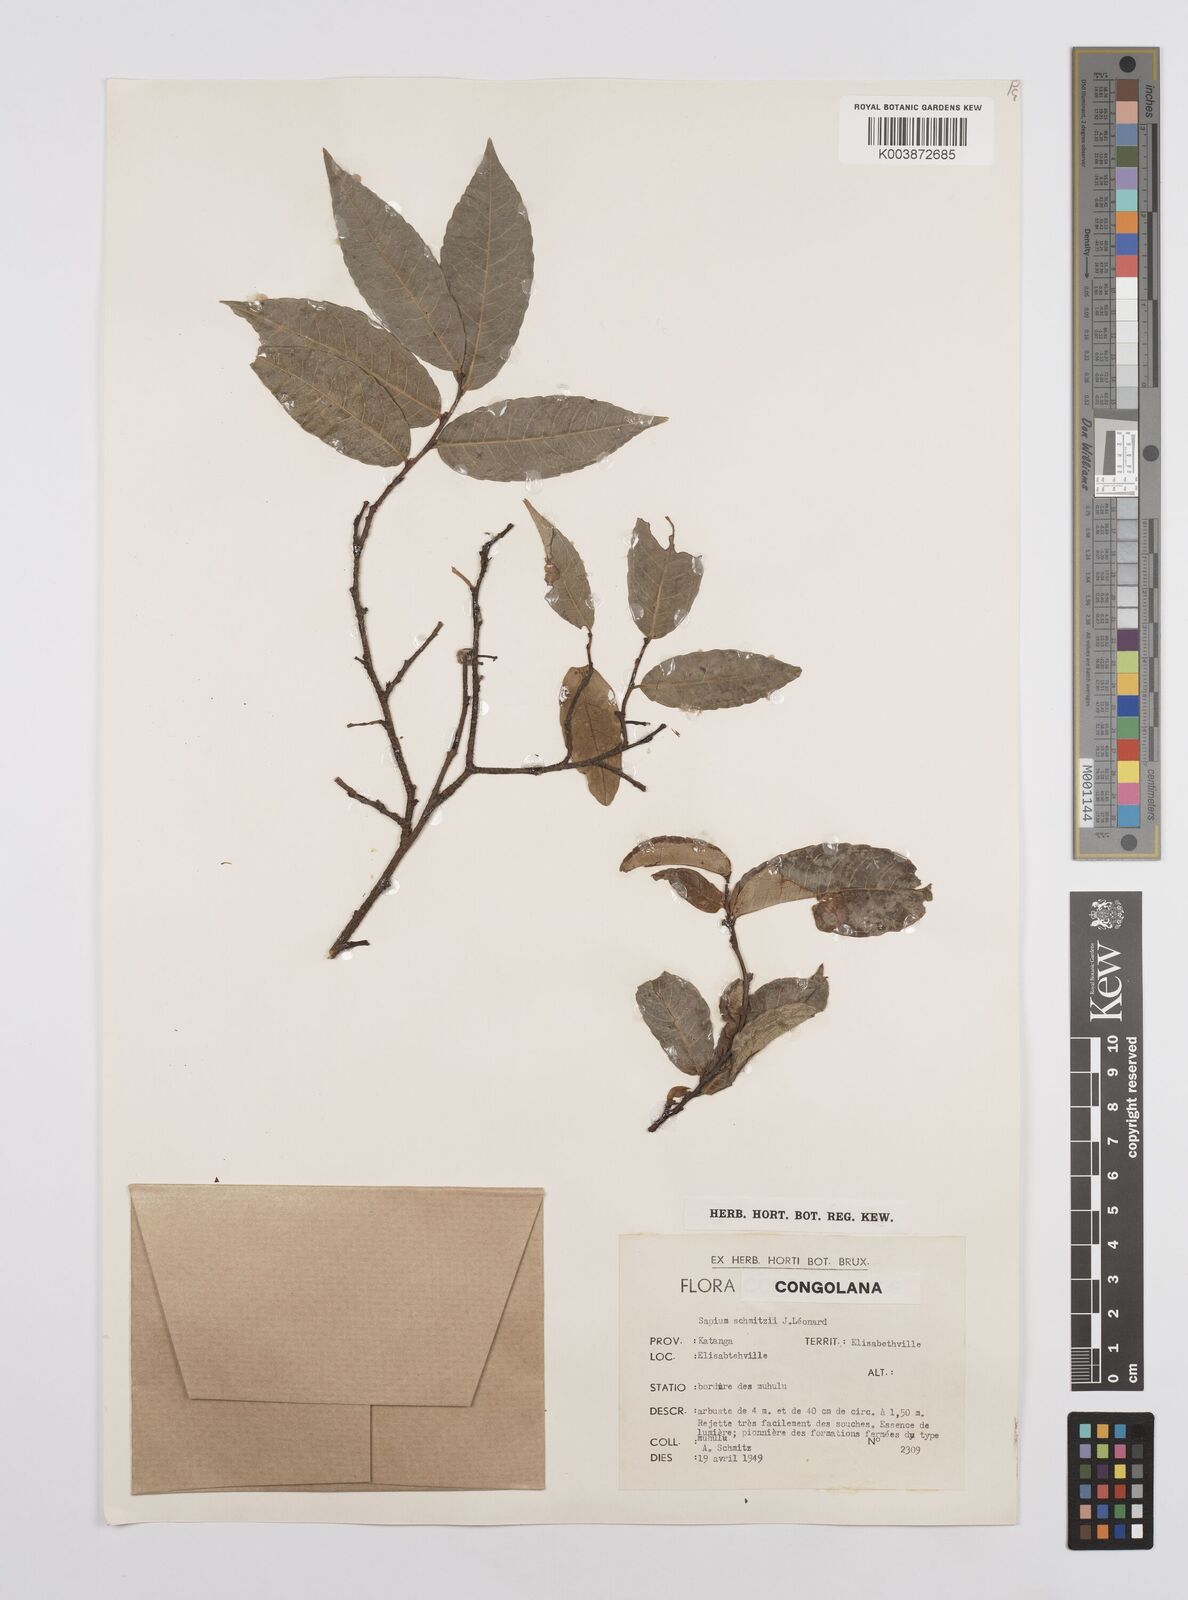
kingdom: Plantae
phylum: Tracheophyta
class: Magnoliopsida
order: Malpighiales
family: Euphorbiaceae
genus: Sclerocroton
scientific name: Sclerocroton schmitzii
